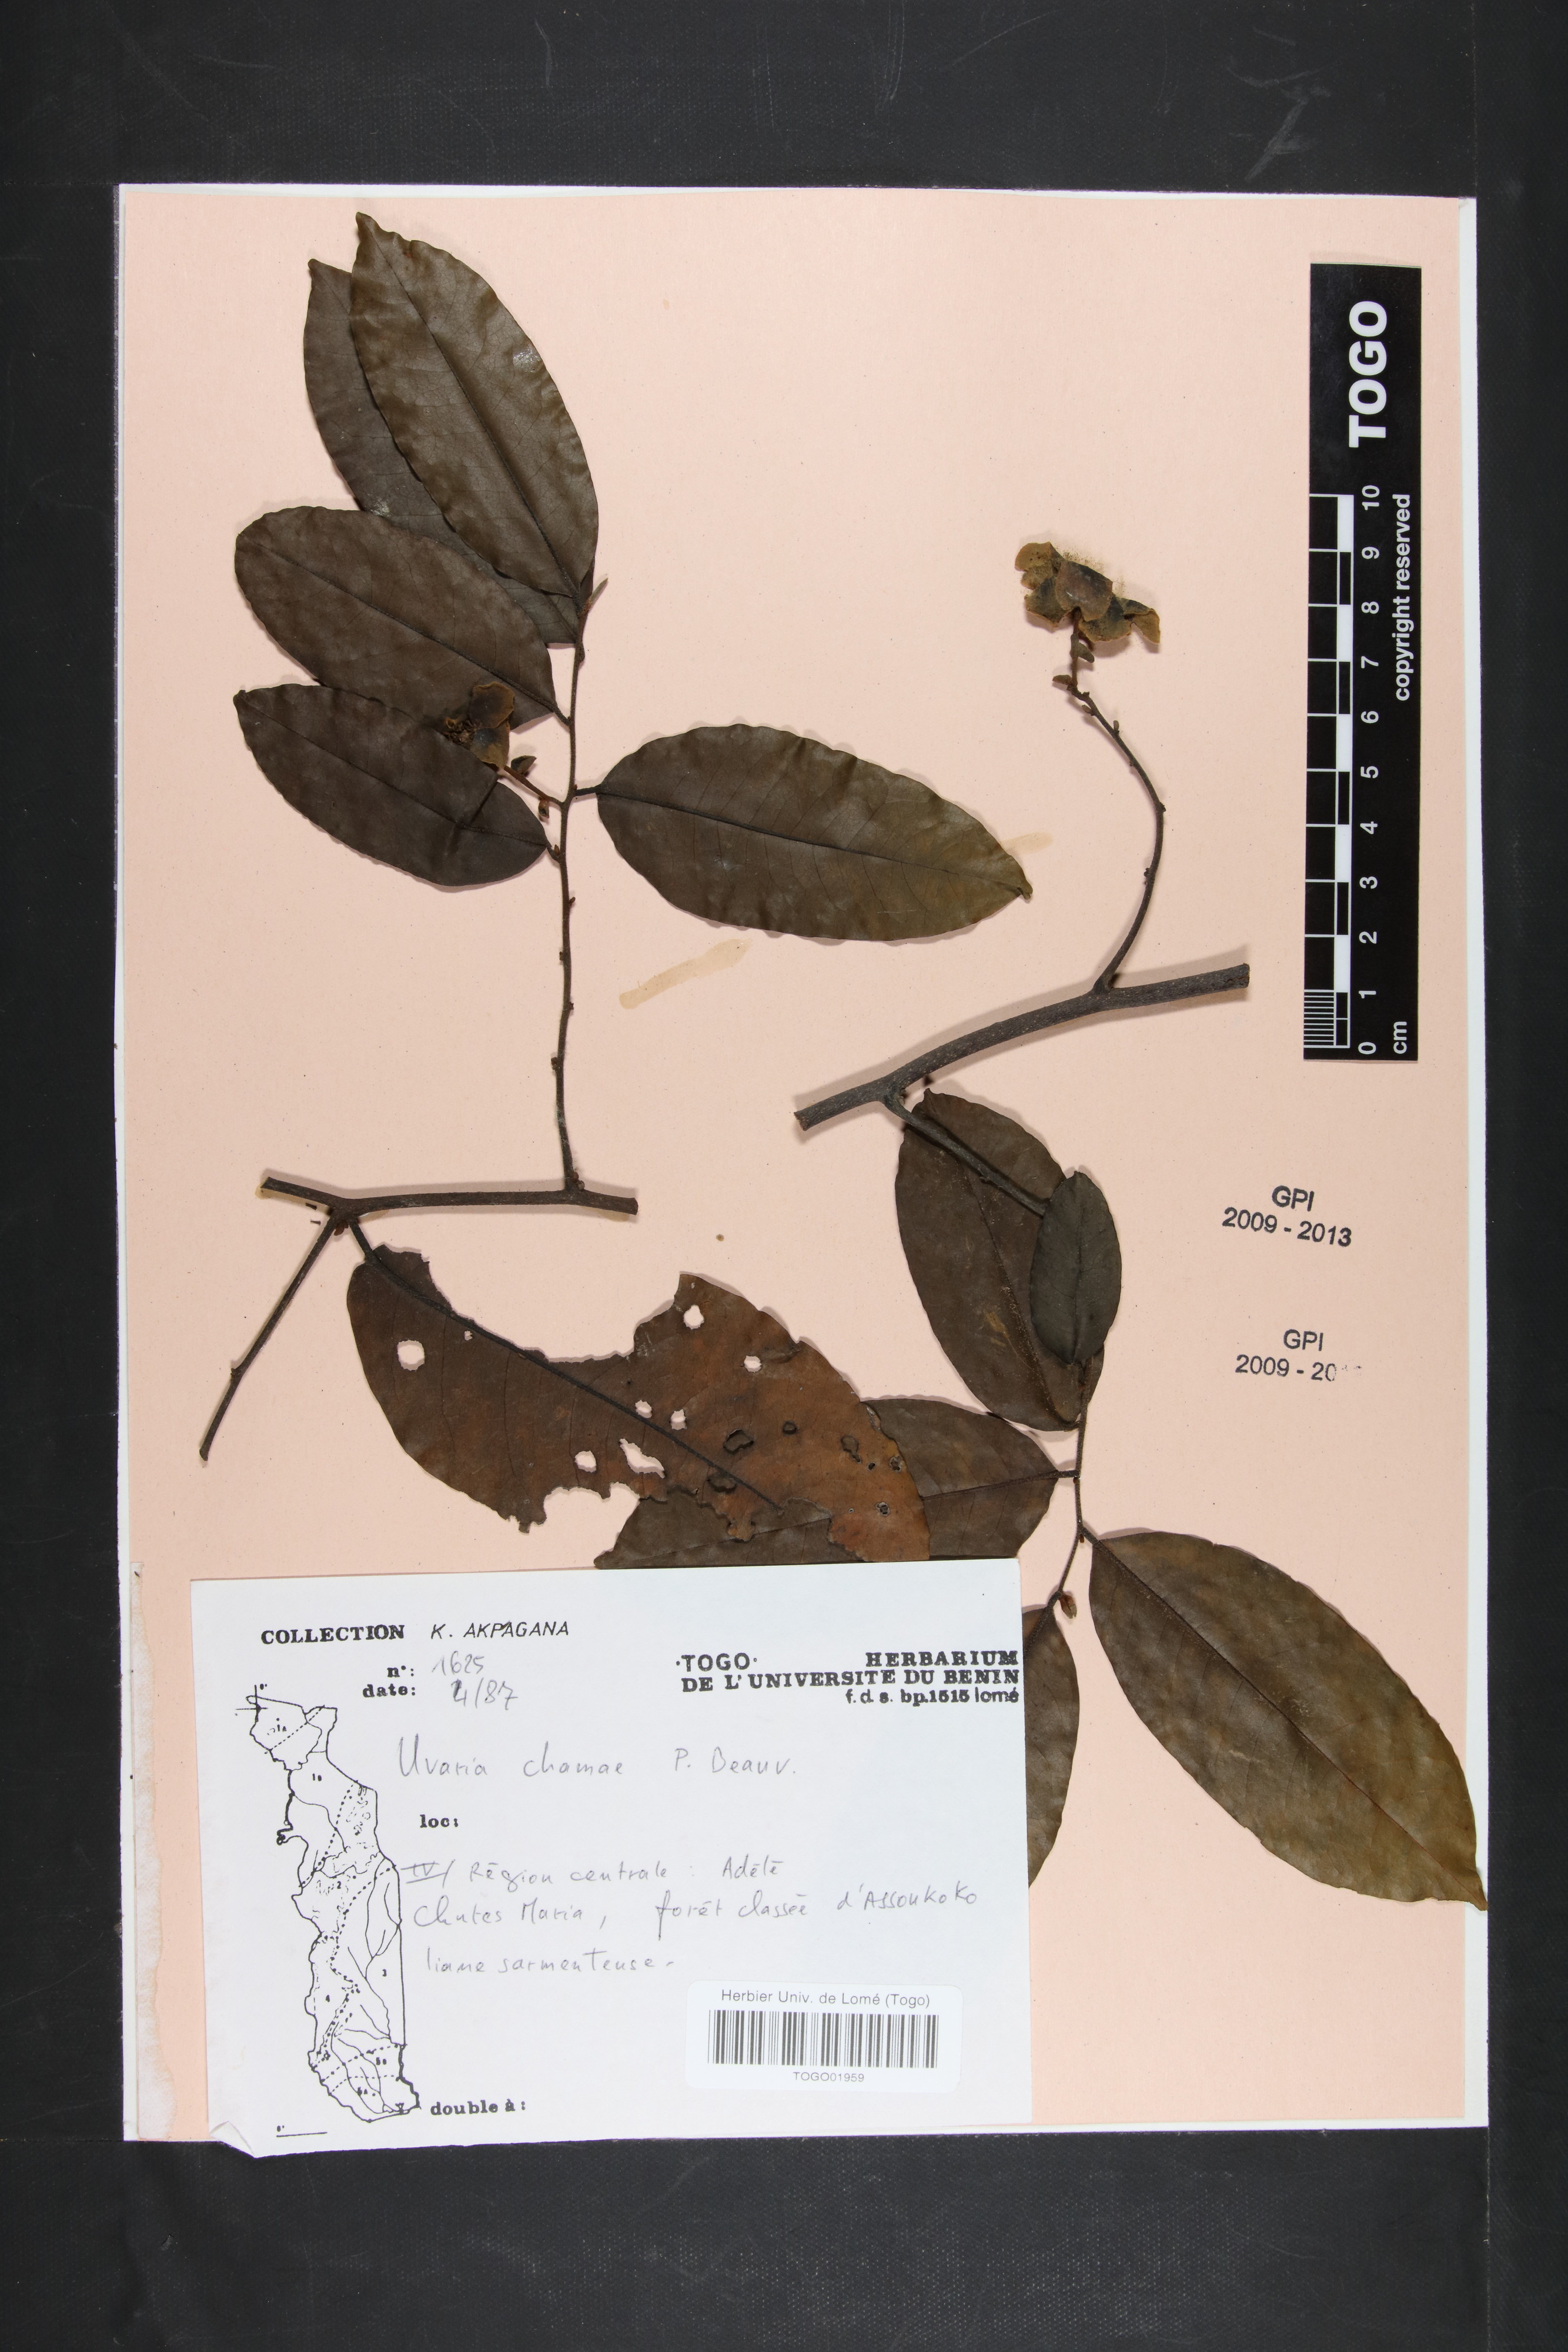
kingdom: Plantae
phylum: Tracheophyta
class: Magnoliopsida
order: Magnoliales
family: Annonaceae
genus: Uvaria
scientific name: Uvaria chamae
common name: Finger-root
